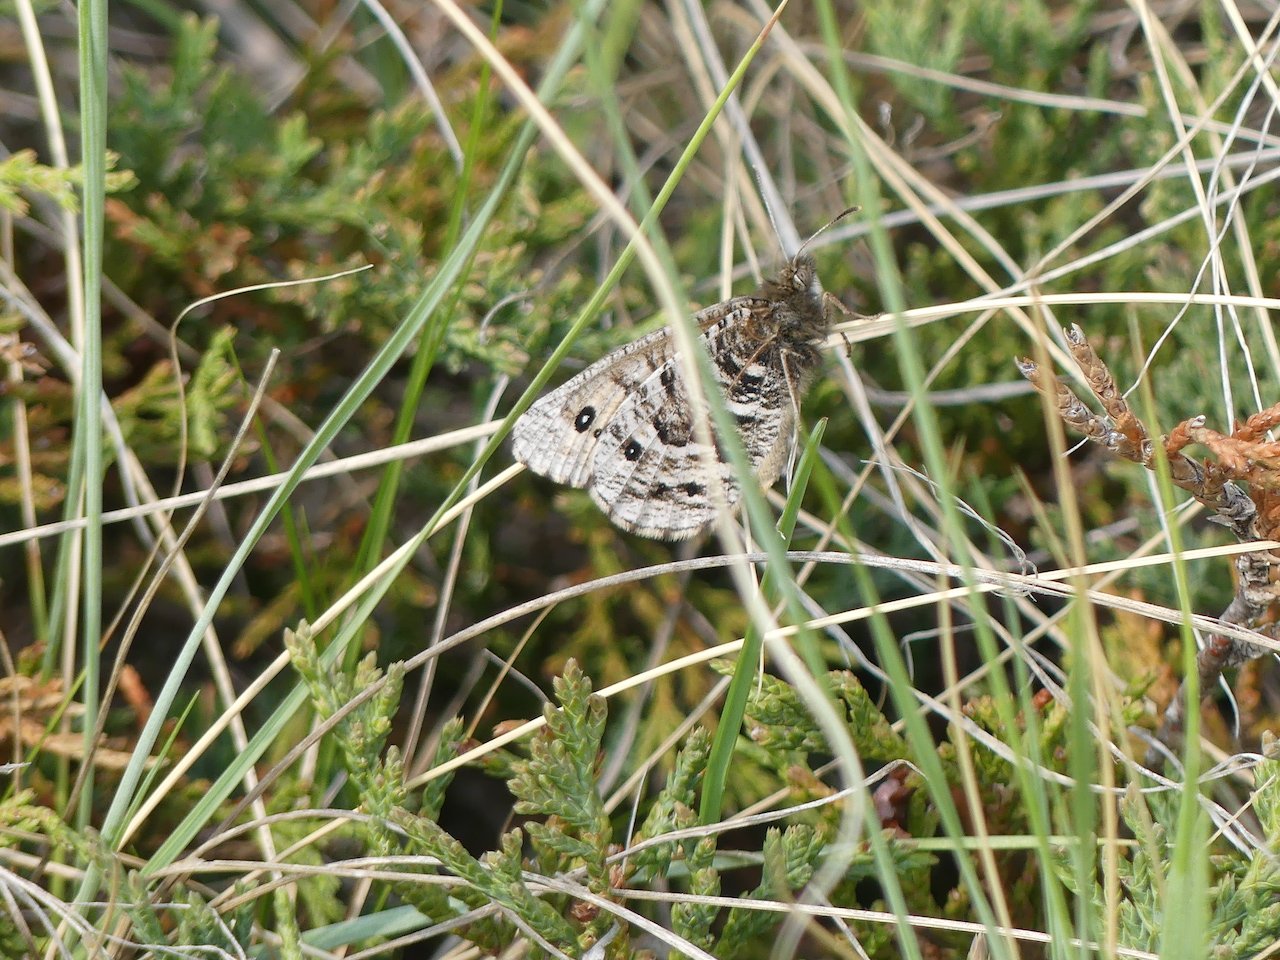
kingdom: Animalia
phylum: Arthropoda
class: Insecta
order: Lepidoptera
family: Nymphalidae
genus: Oeneis
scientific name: Oeneis uhleri
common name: Uhler's Arctic
